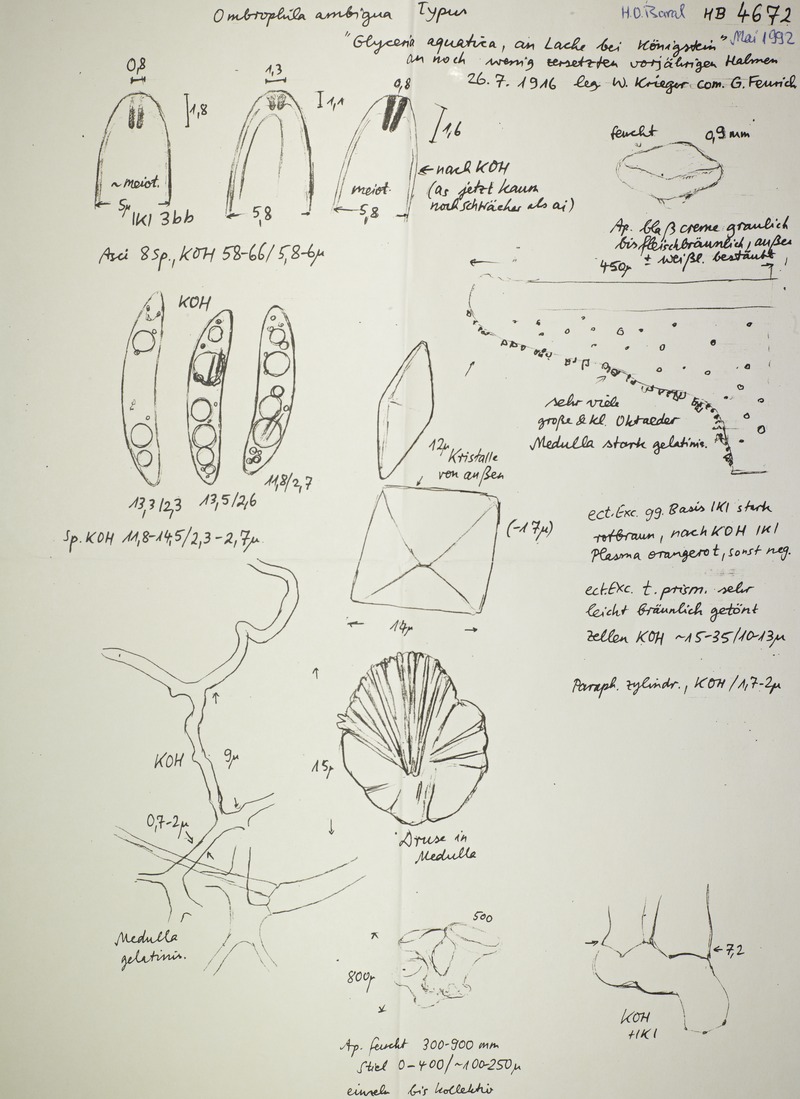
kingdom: Fungi
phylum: Ascomycota
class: Leotiomycetes
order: Helotiales
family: Gelatinodiscaceae
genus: Ombrophila
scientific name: Ombrophila ambigua
